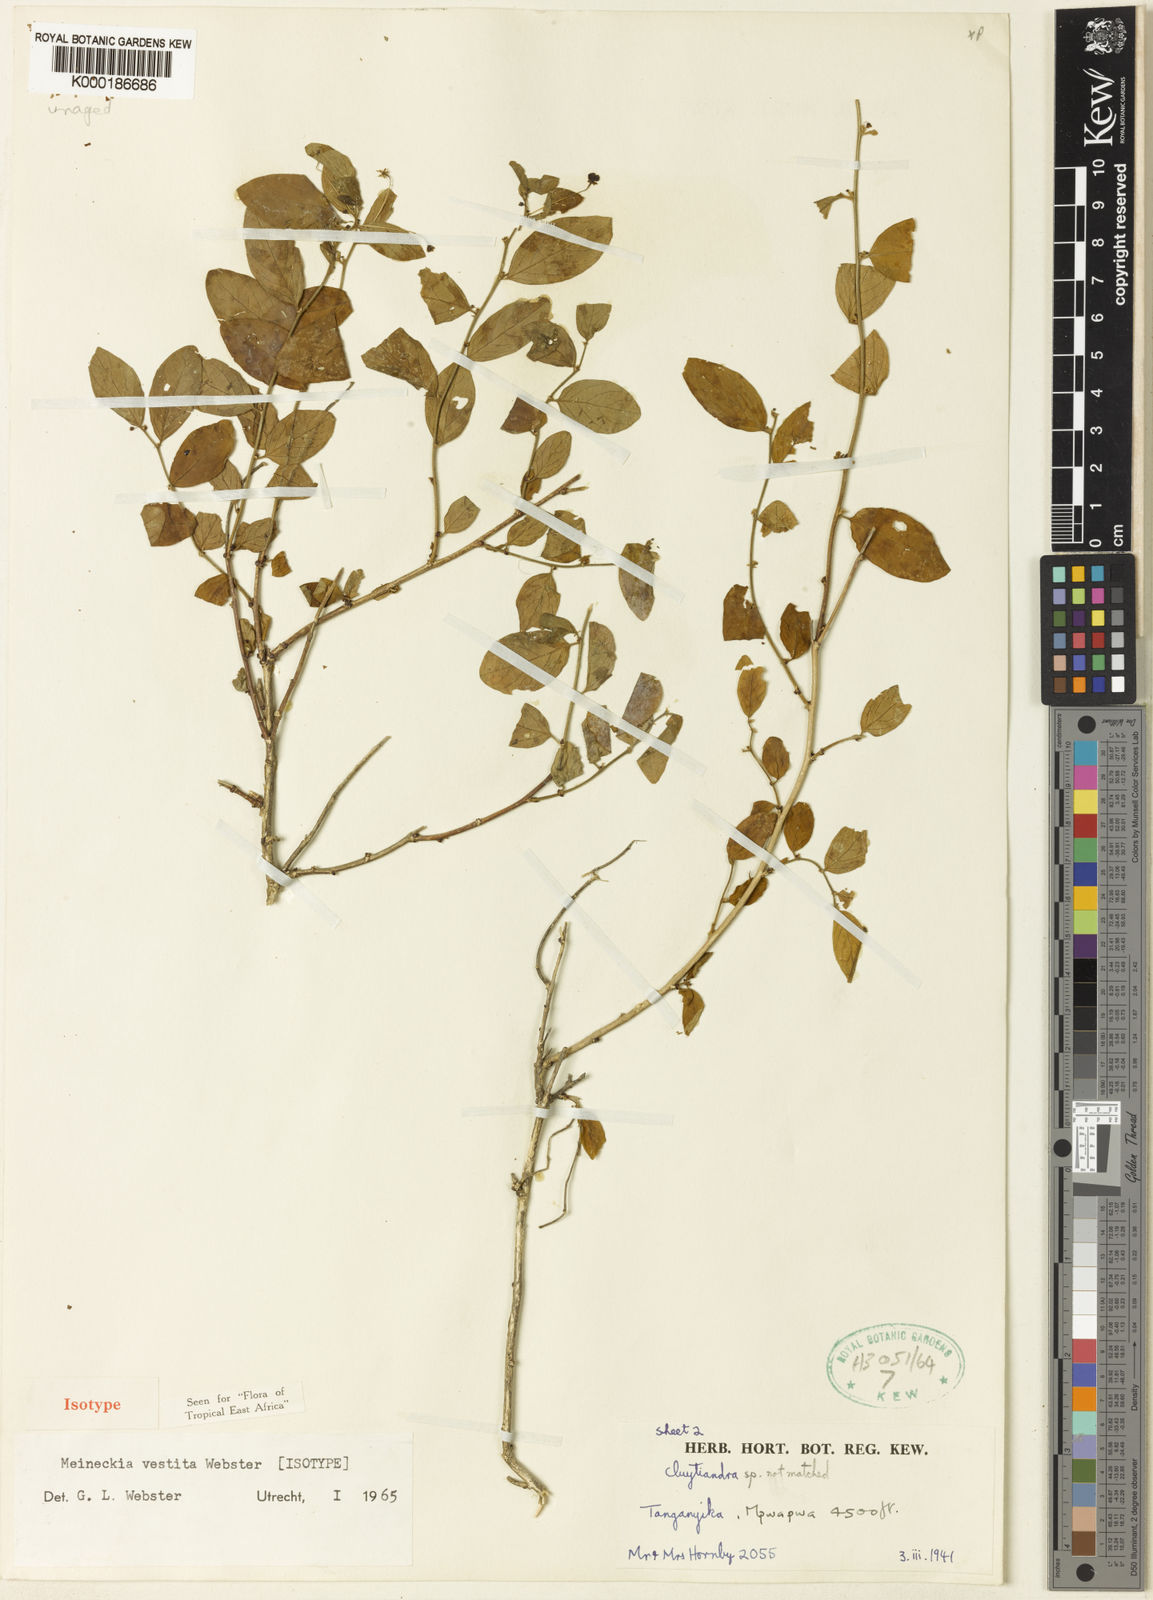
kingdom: Plantae
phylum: Tracheophyta
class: Magnoliopsida
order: Malpighiales
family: Phyllanthaceae
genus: Meineckia
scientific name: Meineckia vestita
